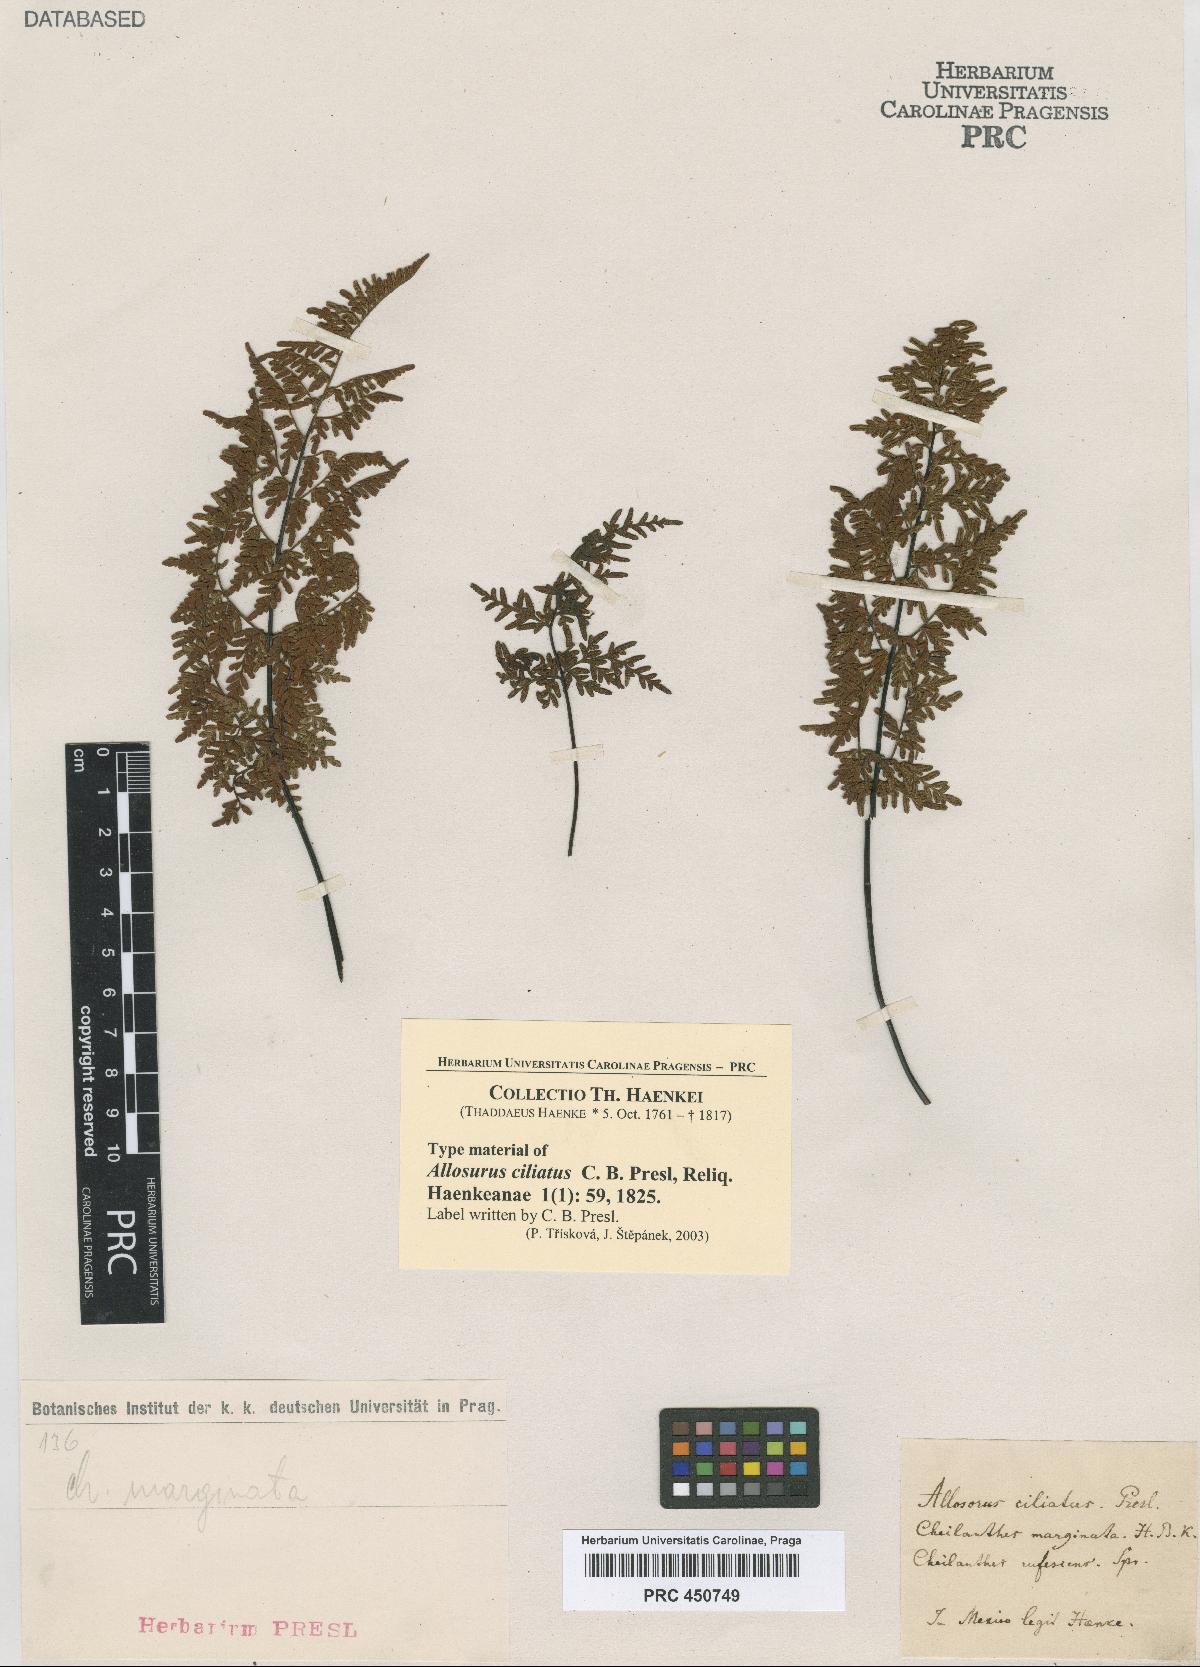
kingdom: Plantae
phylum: Tracheophyta
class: Polypodiopsida
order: Polypodiales
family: Adiantaceae
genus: Allosurus
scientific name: Allosurus
